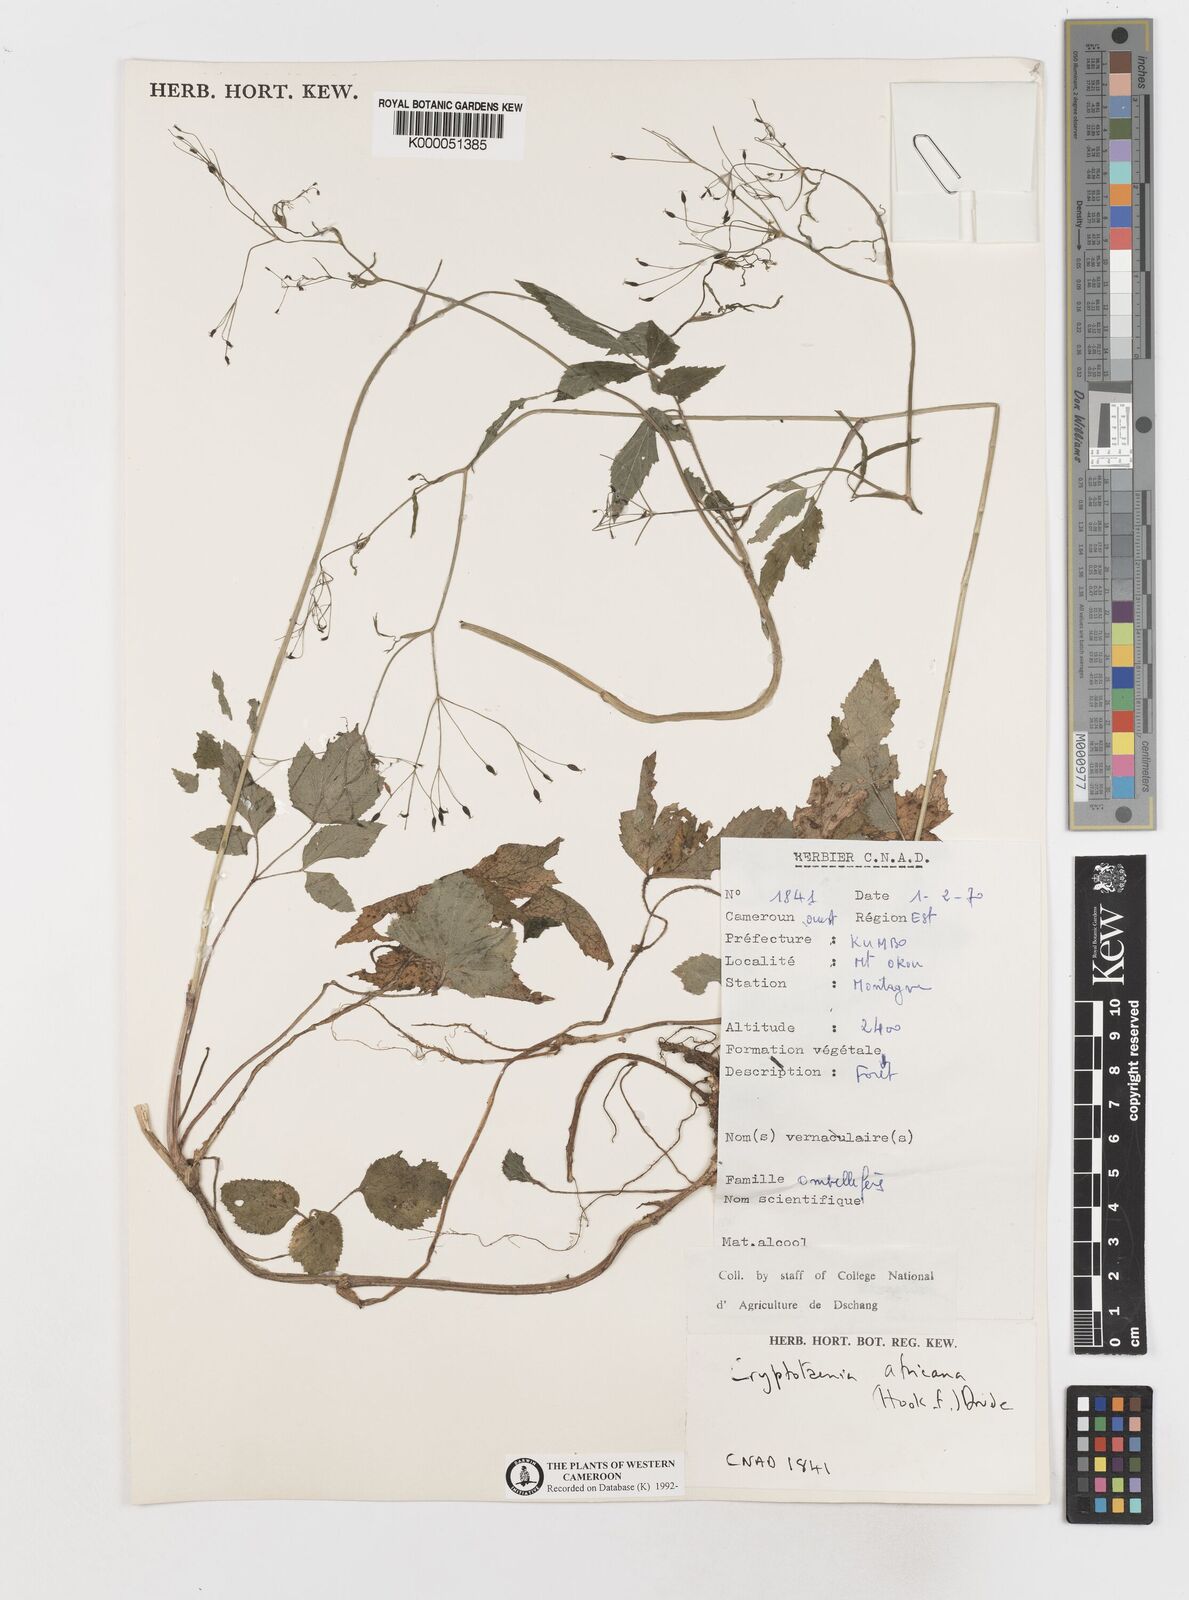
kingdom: Plantae
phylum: Tracheophyta
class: Magnoliopsida
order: Apiales
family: Apiaceae
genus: Cryptotaenia
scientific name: Cryptotaenia africana
